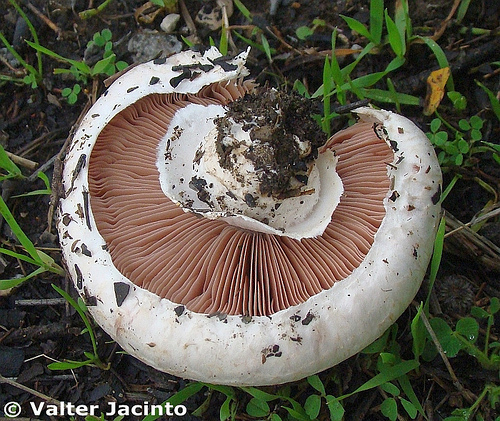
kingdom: Fungi
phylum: Basidiomycota
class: Agaricomycetes
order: Agaricales
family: Agaricaceae
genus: Agaricus
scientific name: Agaricus campestris
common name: Field mushroom
